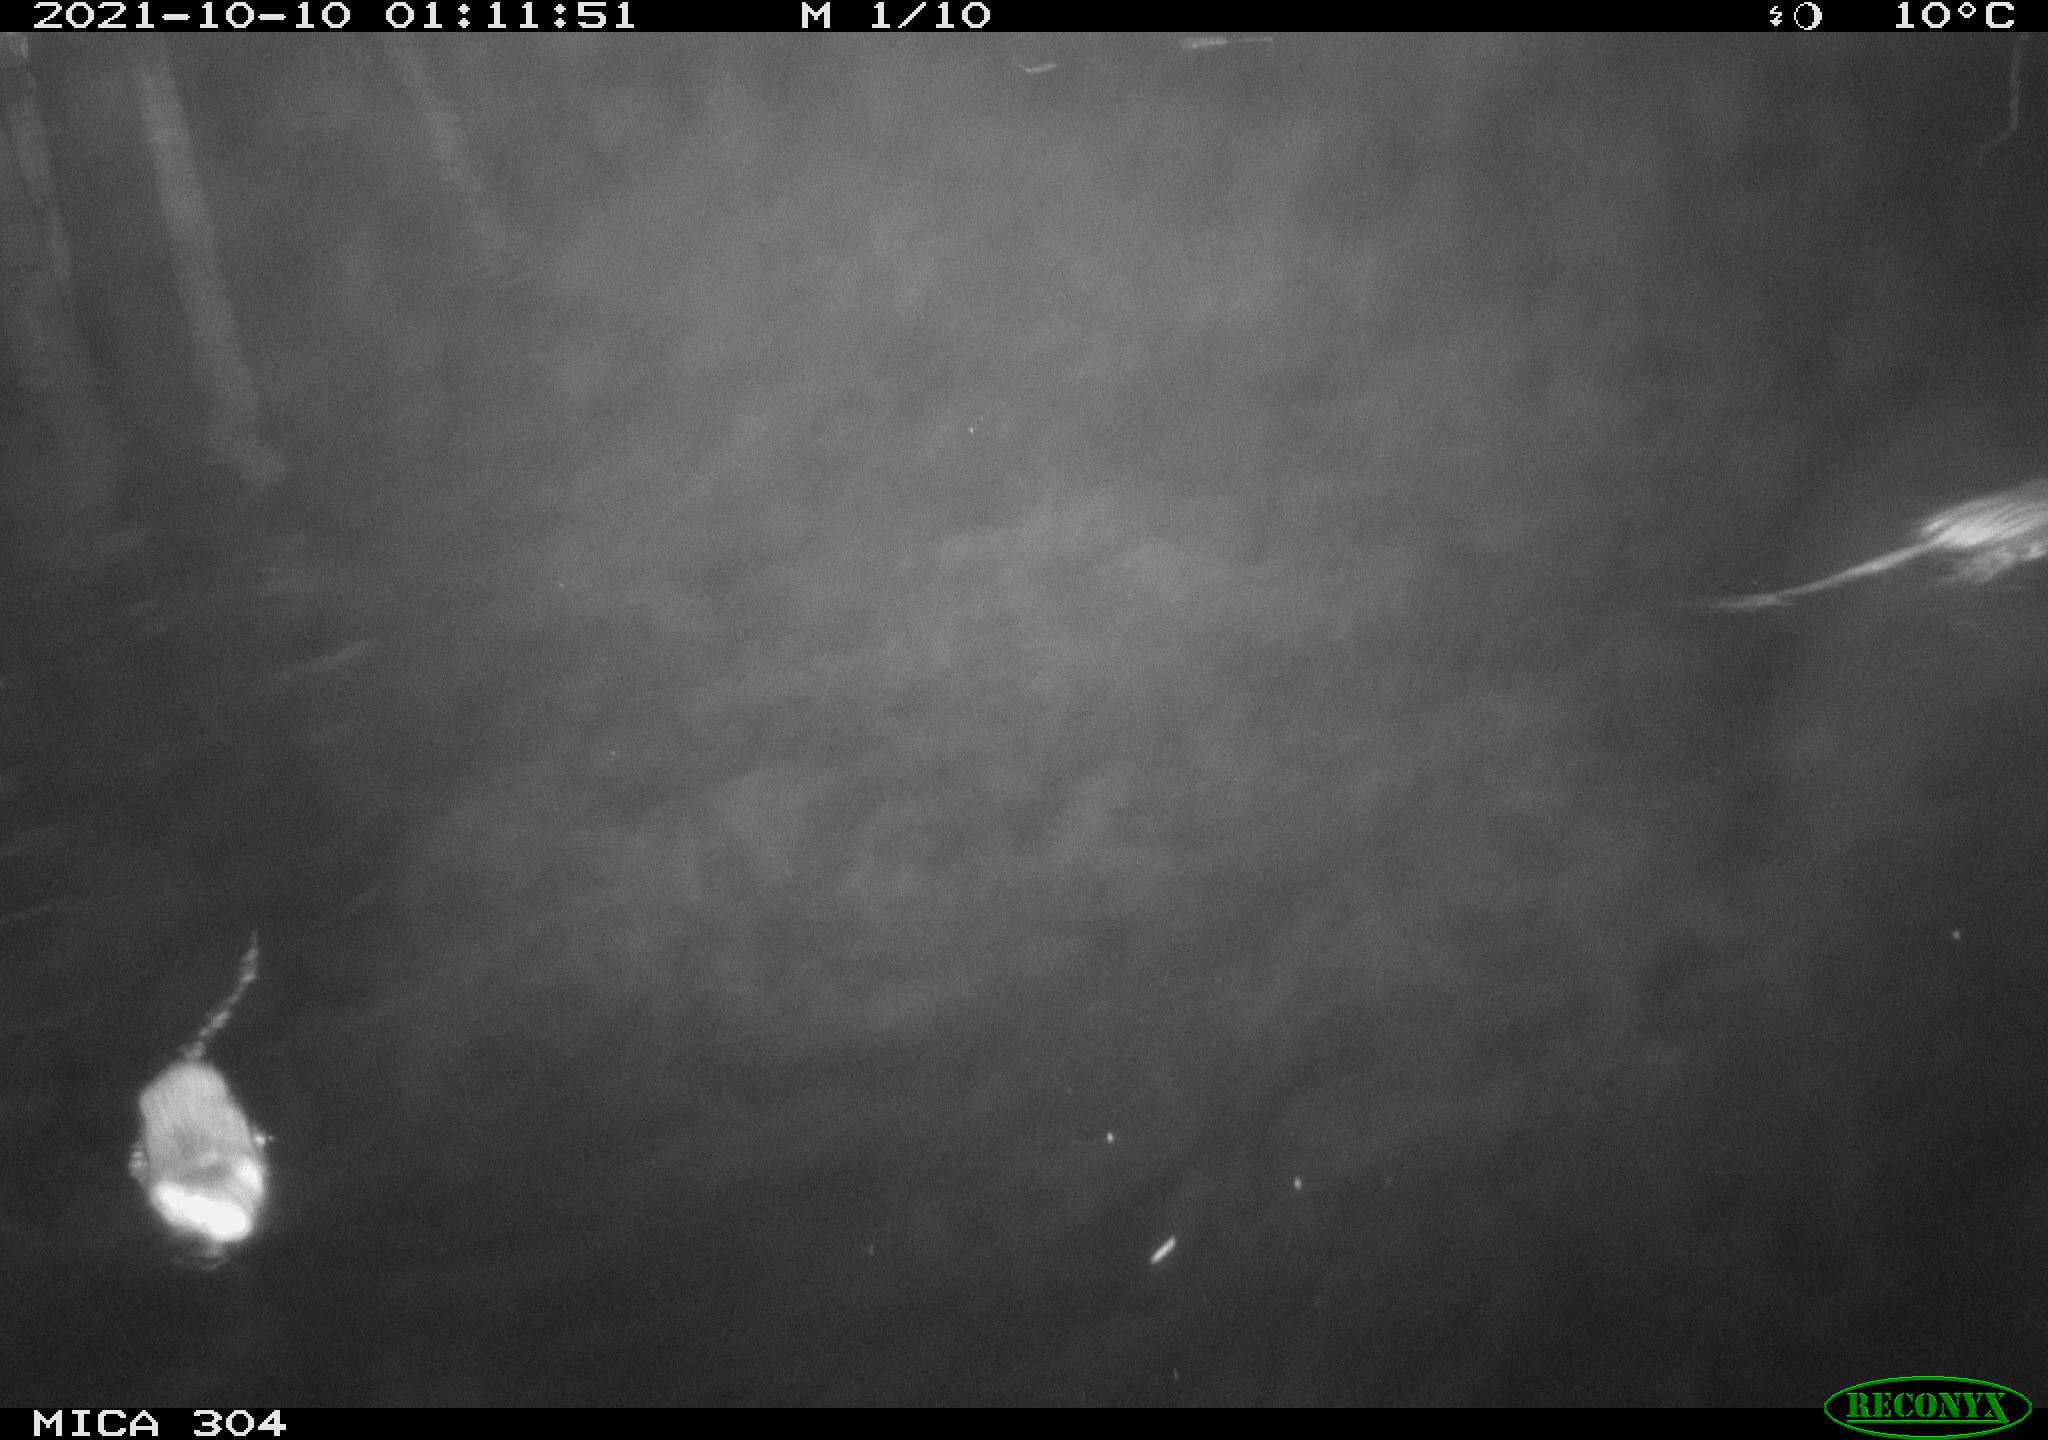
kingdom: Animalia
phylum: Chordata
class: Mammalia
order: Rodentia
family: Cricetidae
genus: Ondatra
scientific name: Ondatra zibethicus
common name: Muskrat
